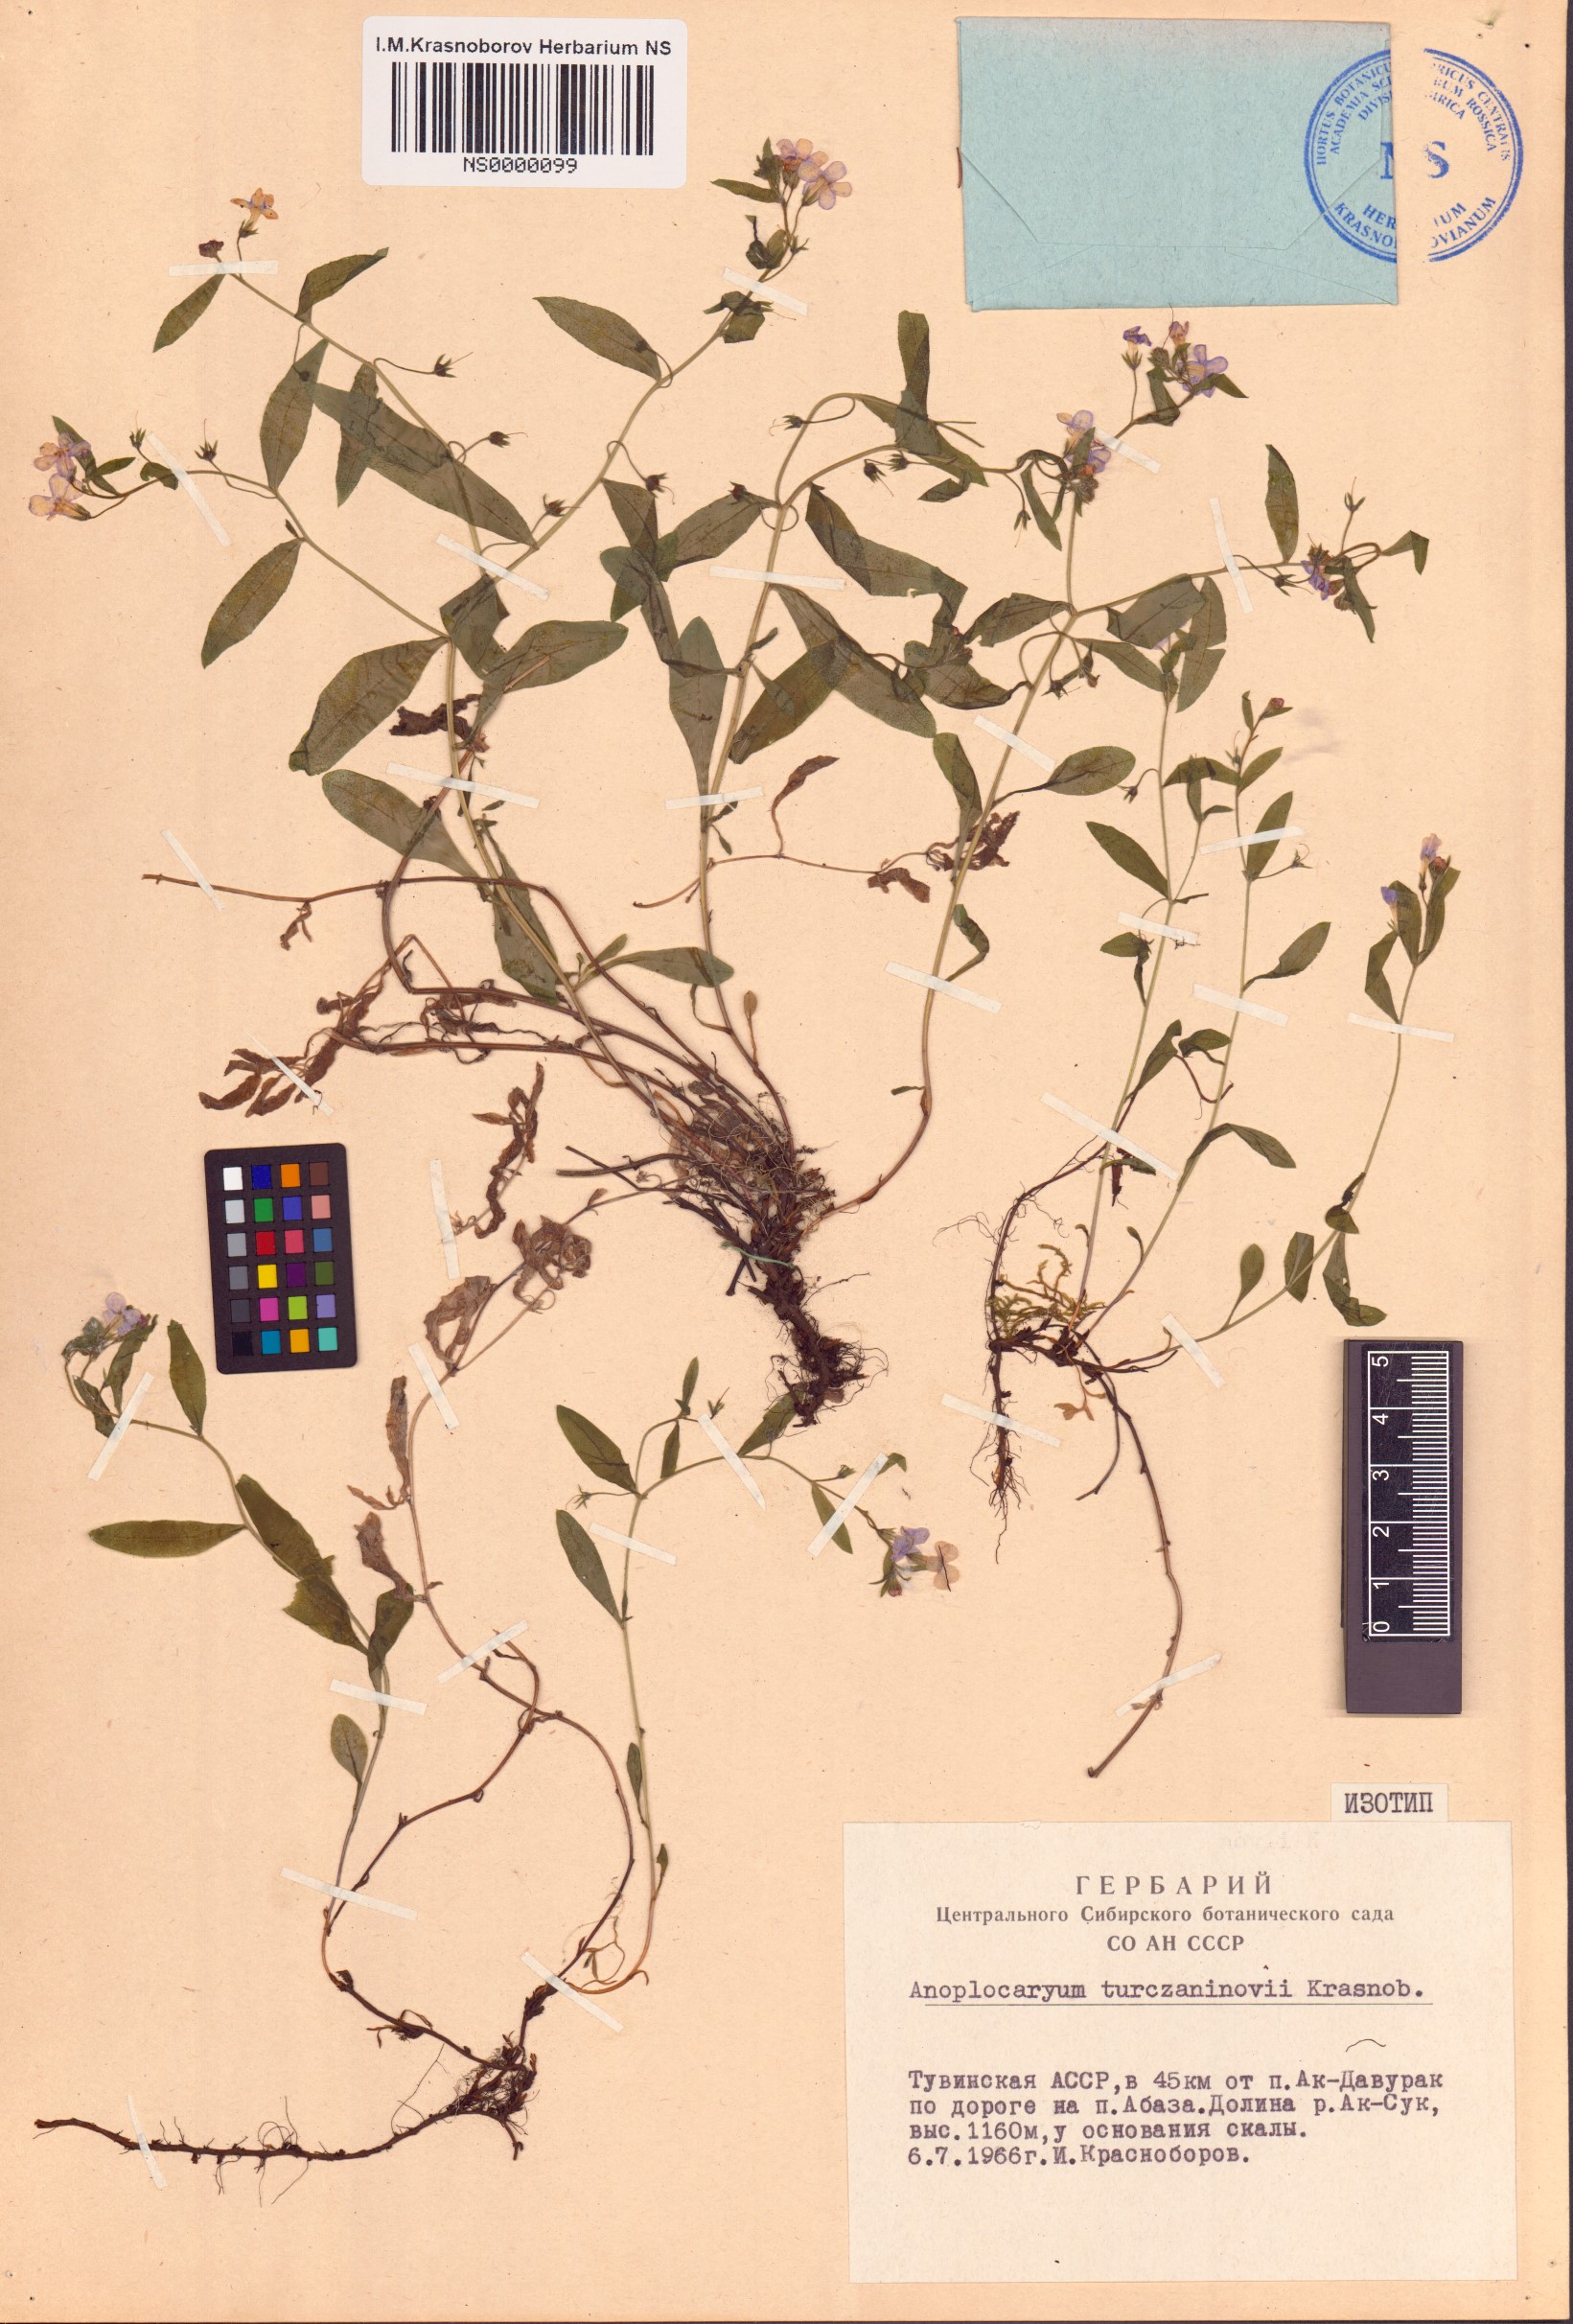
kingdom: Plantae
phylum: Tracheophyta
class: Magnoliopsida
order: Boraginales
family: Boraginaceae
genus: Anoplocaryum
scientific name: Anoplocaryum turczaninovii
